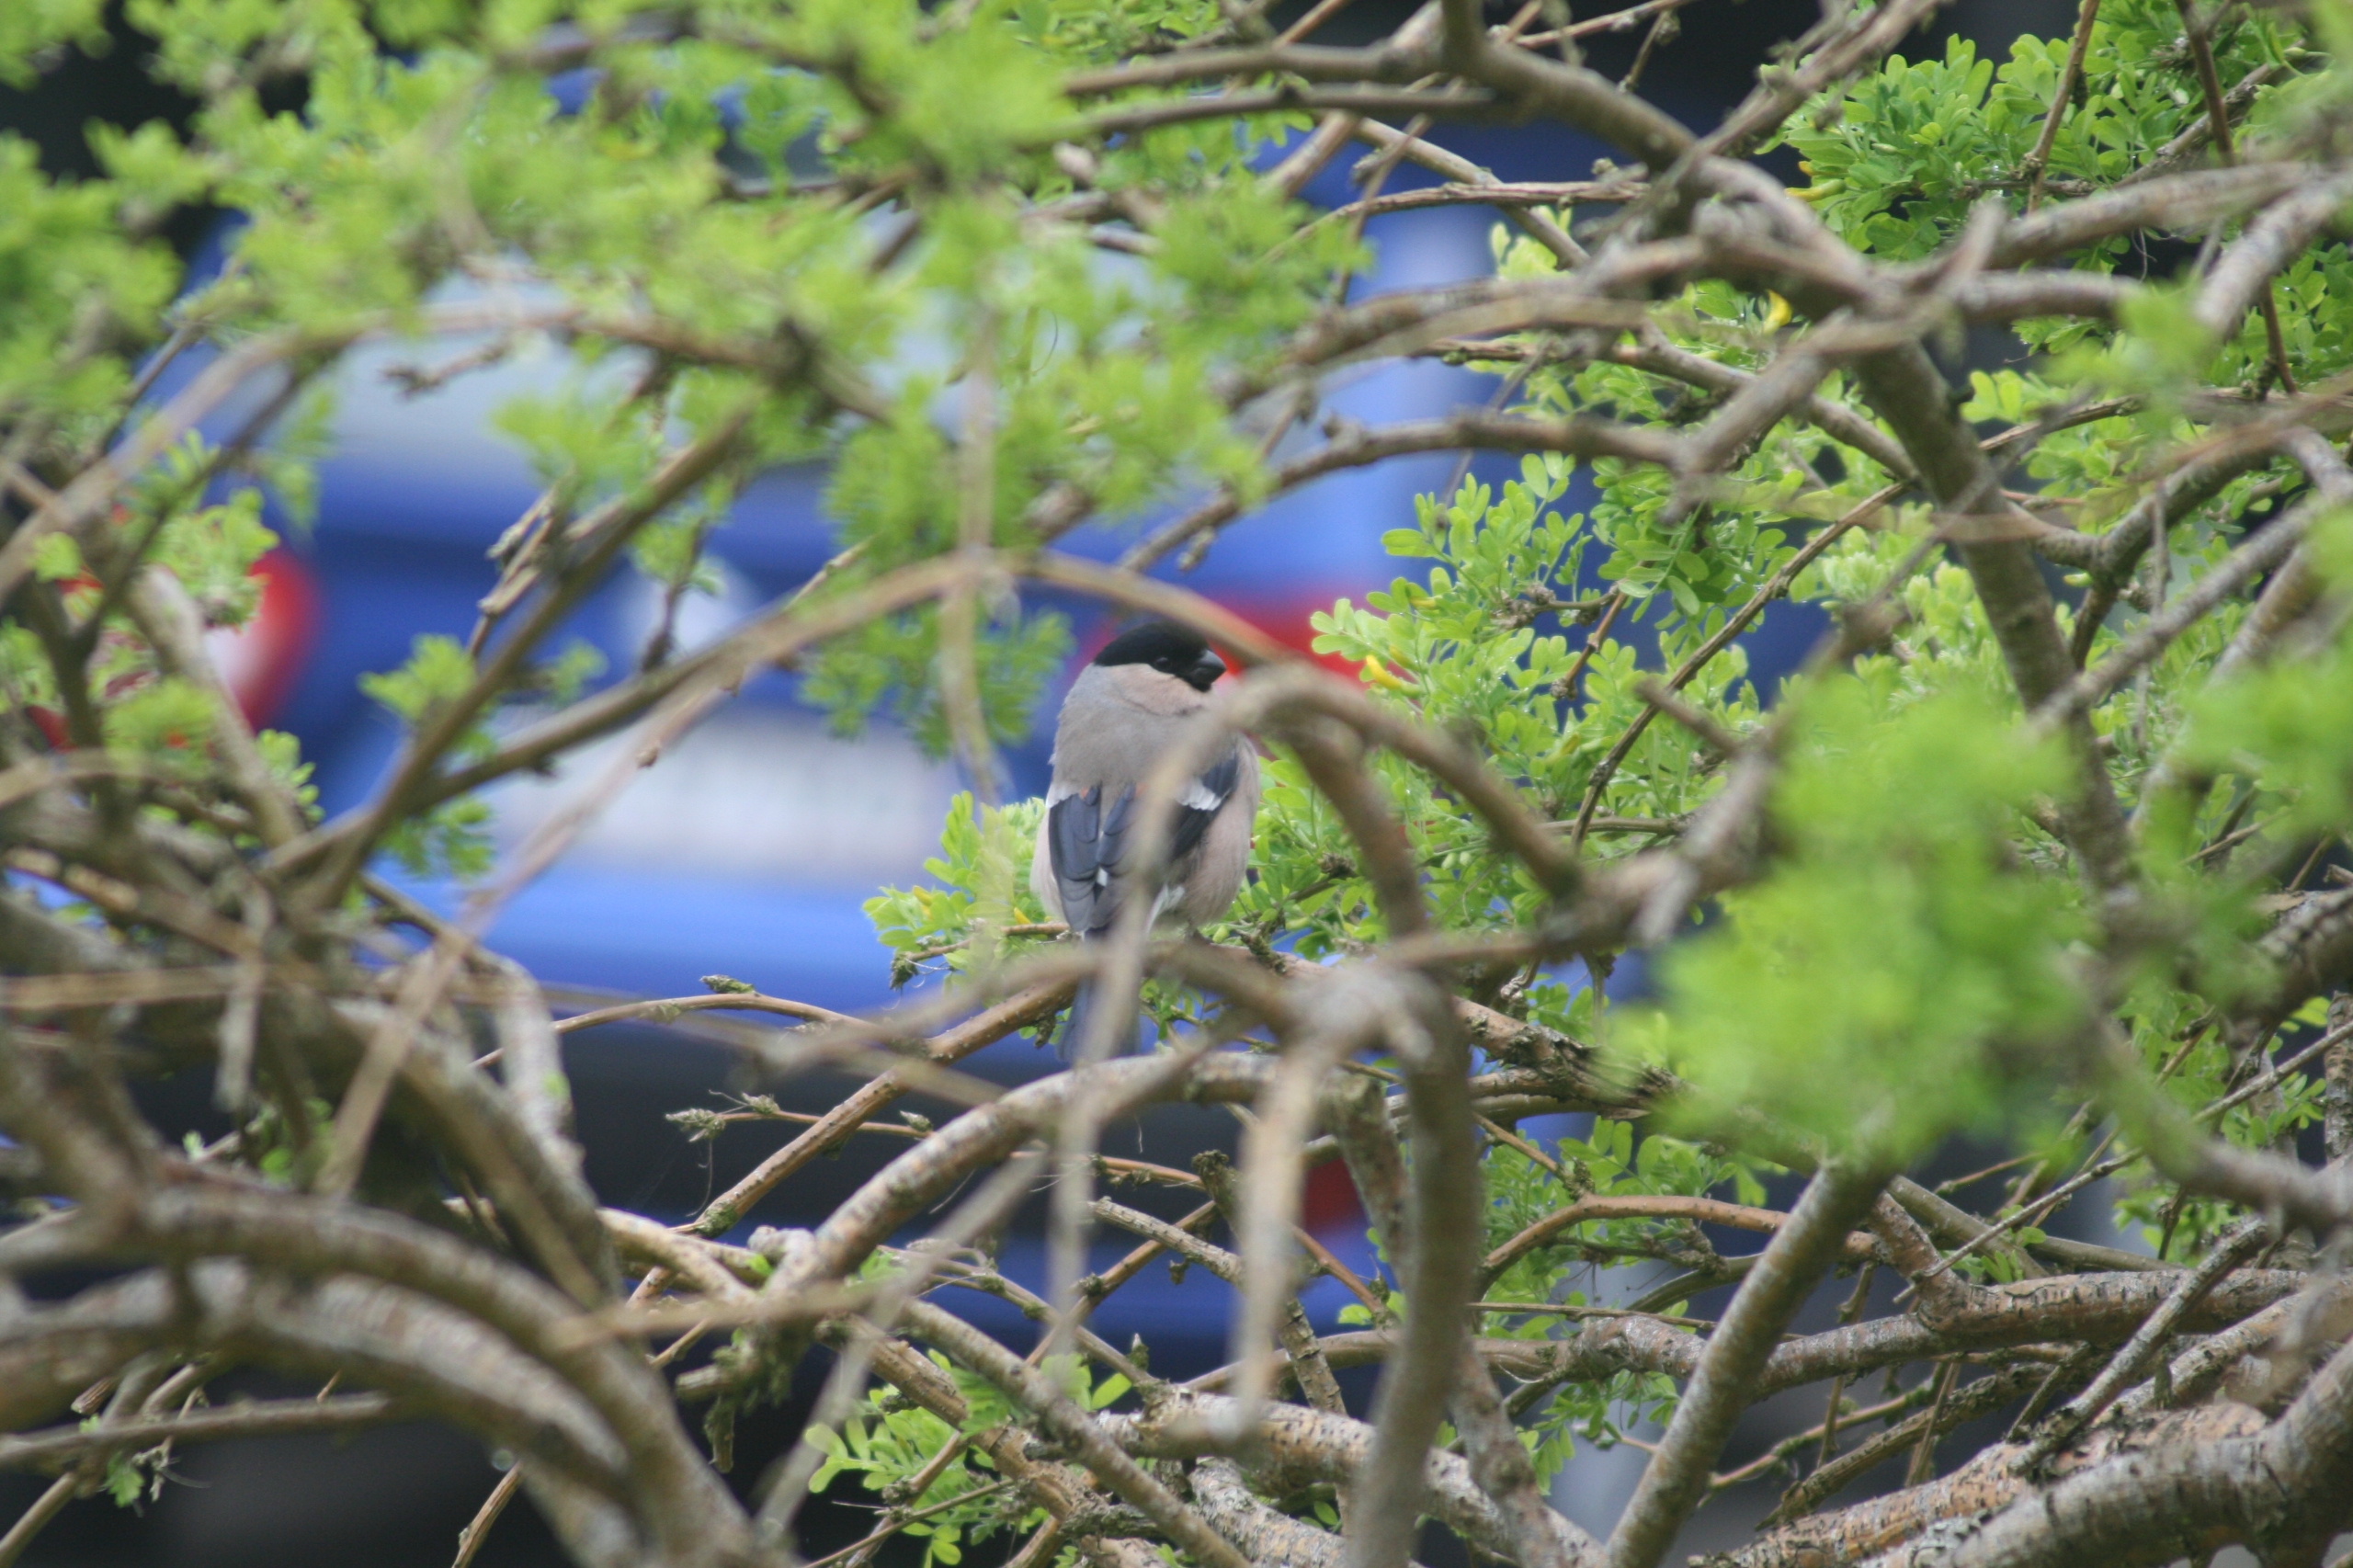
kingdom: Animalia
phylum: Chordata
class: Aves
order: Passeriformes
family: Fringillidae
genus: Pyrrhula
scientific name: Pyrrhula pyrrhula
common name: Dompap
